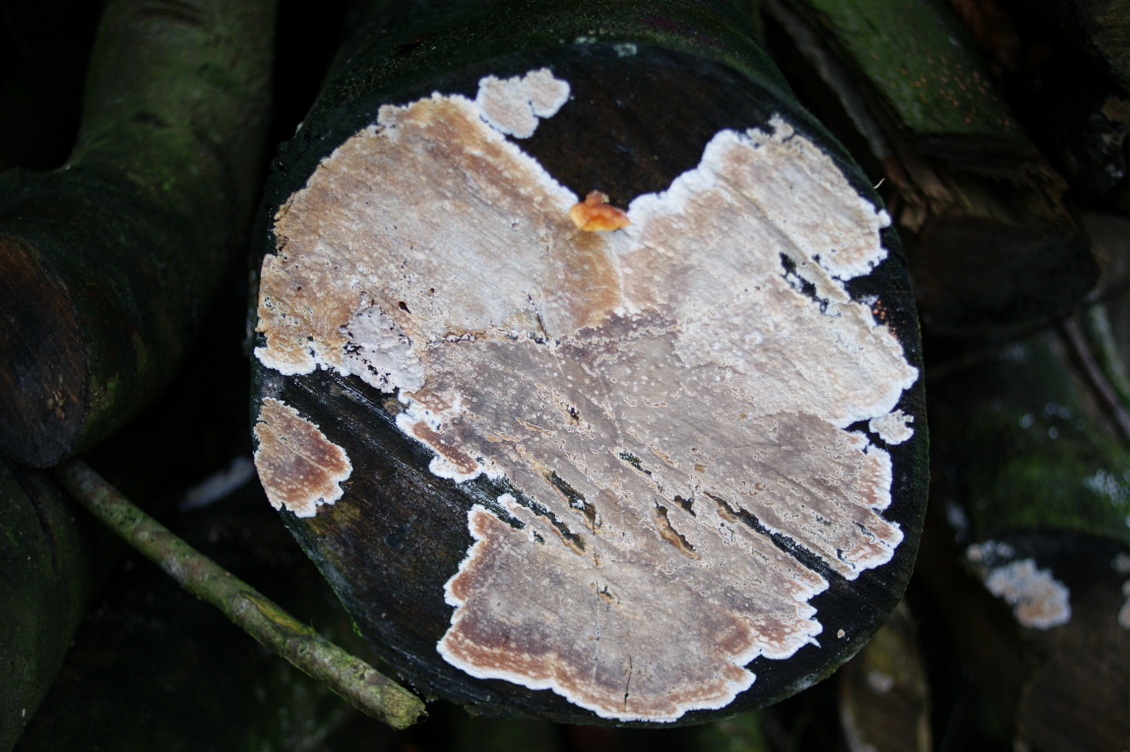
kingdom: Fungi
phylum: Basidiomycota
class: Agaricomycetes
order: Agaricales
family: Physalacriaceae
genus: Cylindrobasidium
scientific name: Cylindrobasidium evolvens
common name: sprækkehinde
